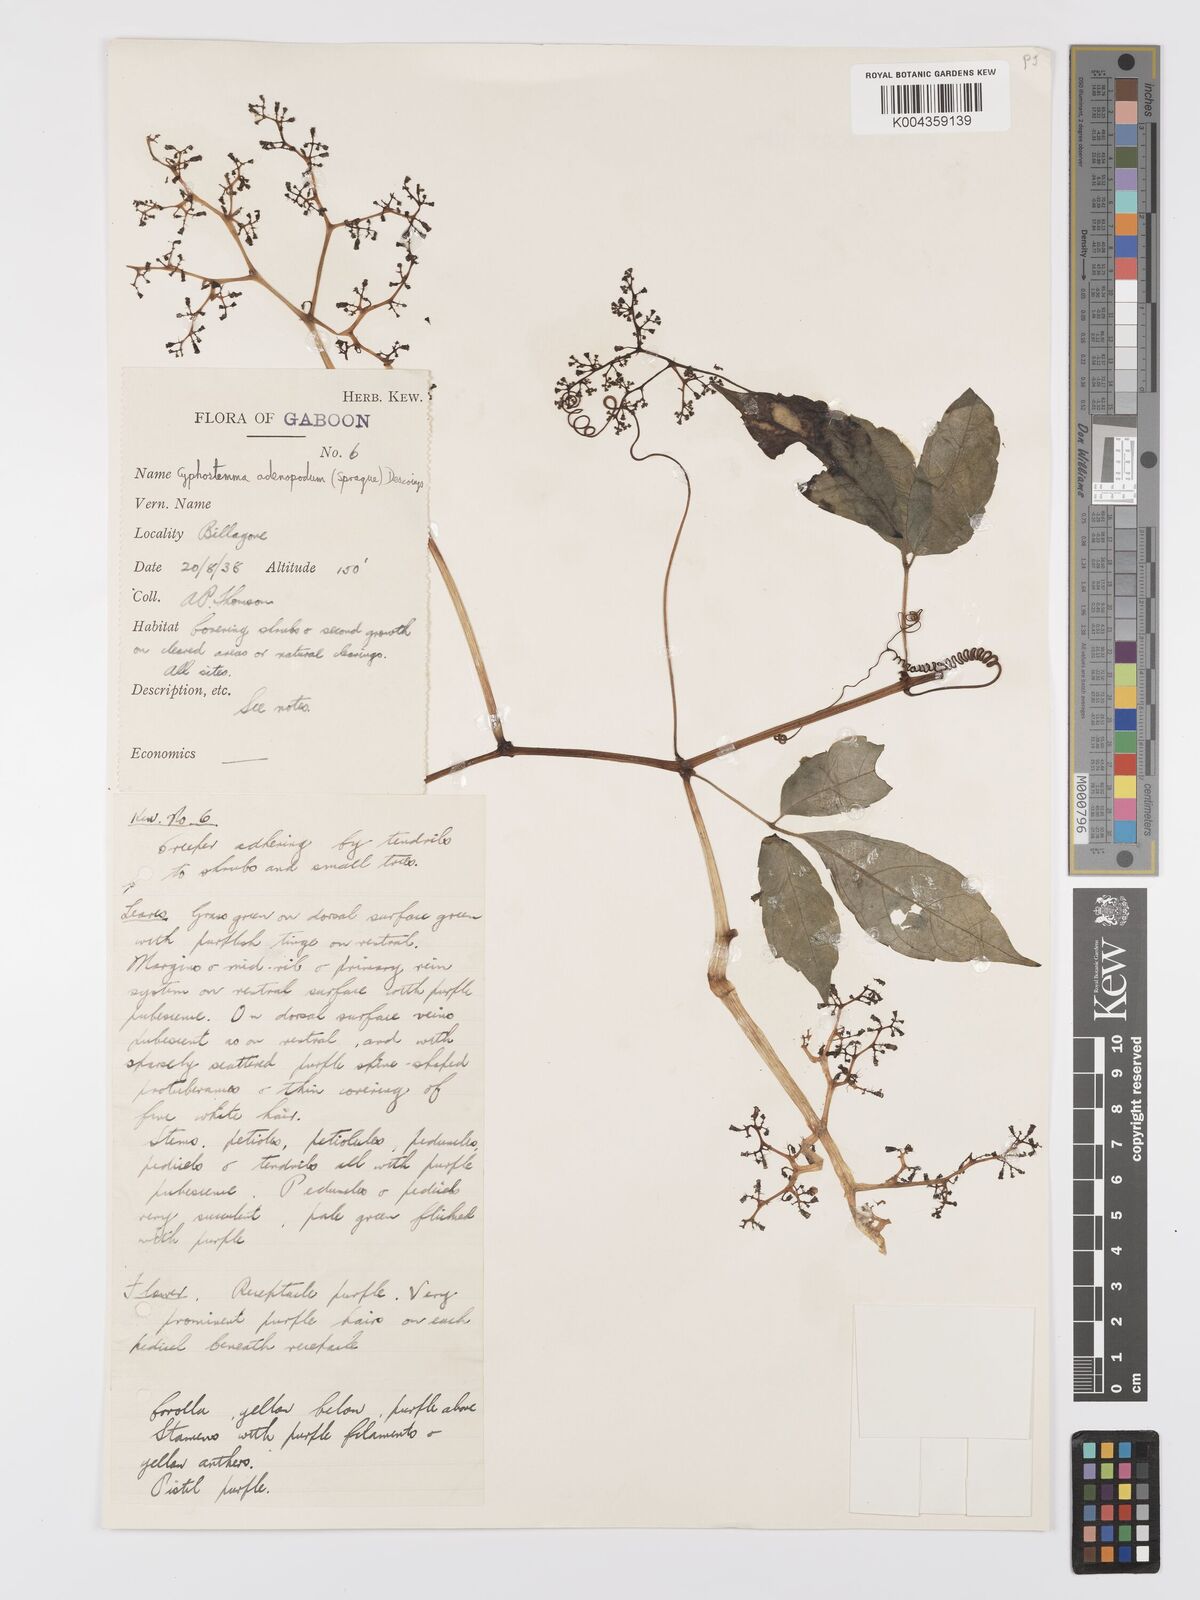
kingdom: Plantae
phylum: Tracheophyta
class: Magnoliopsida
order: Vitales
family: Vitaceae
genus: Cyphostemma
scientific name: Cyphostemma adenopodum
